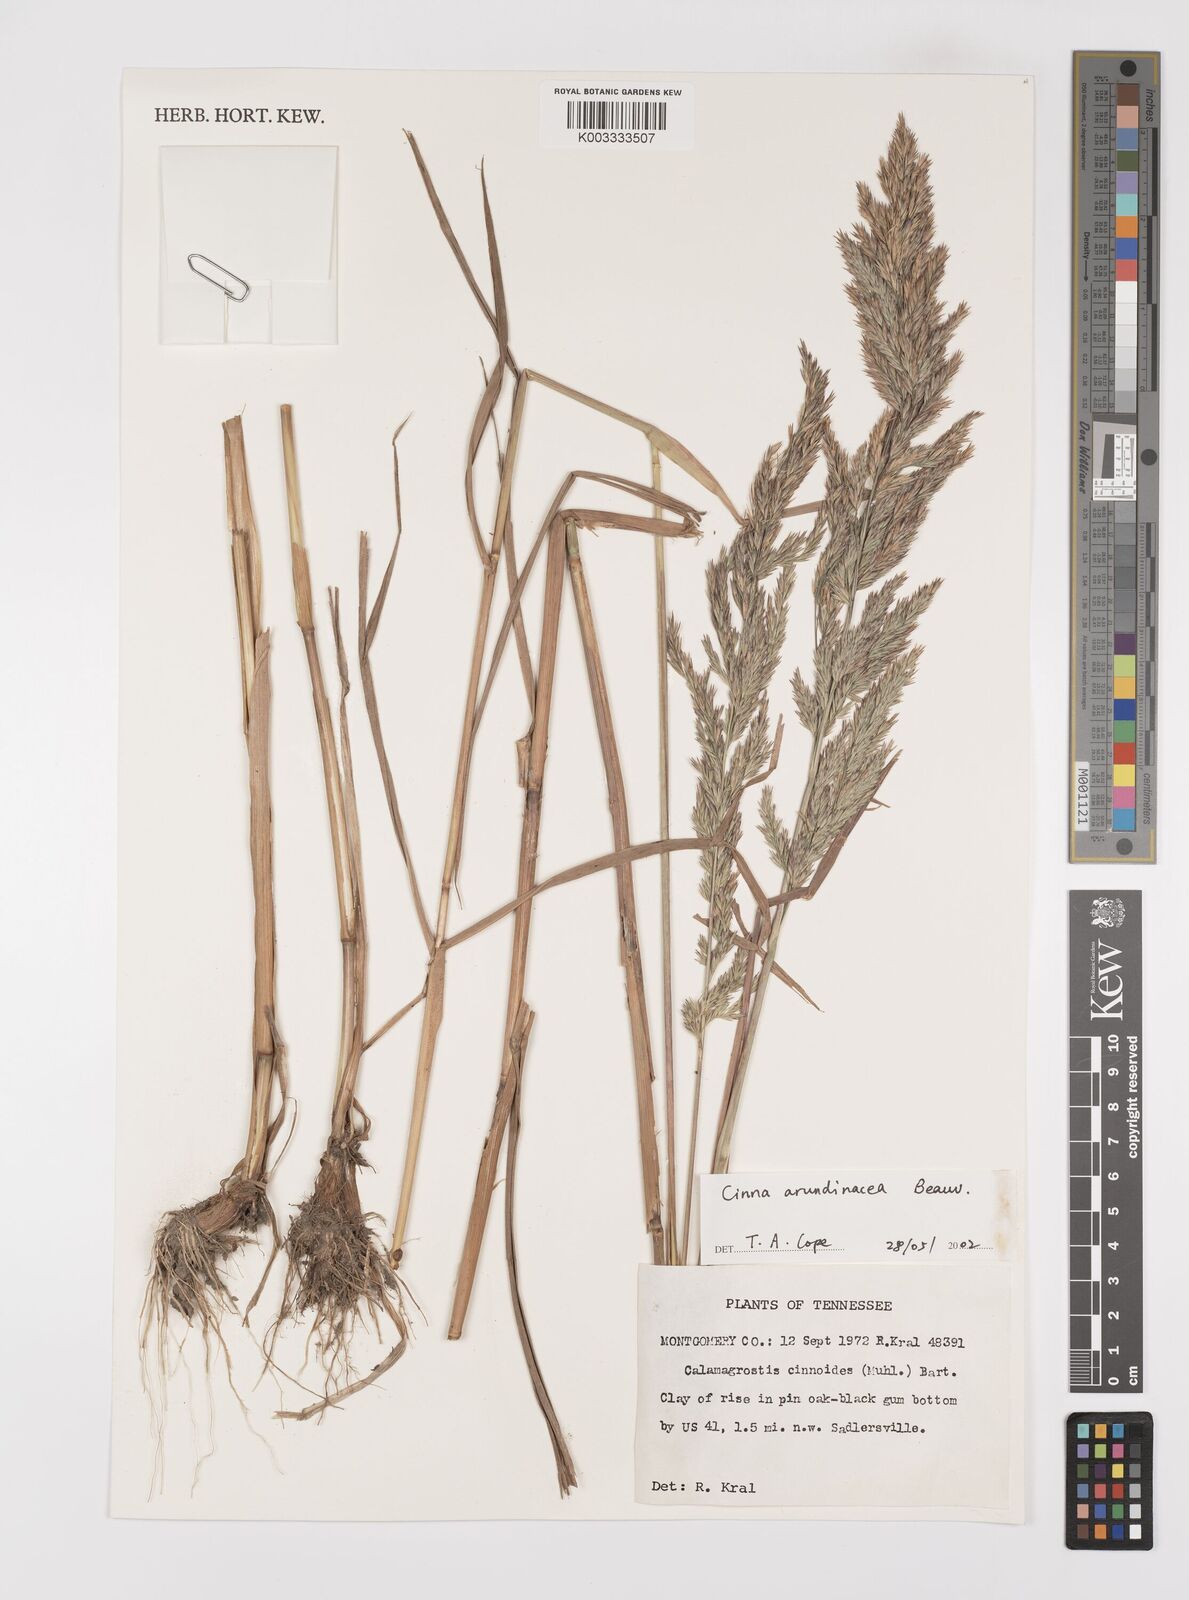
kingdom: Plantae
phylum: Tracheophyta
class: Liliopsida
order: Poales
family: Poaceae
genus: Cinna
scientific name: Cinna
